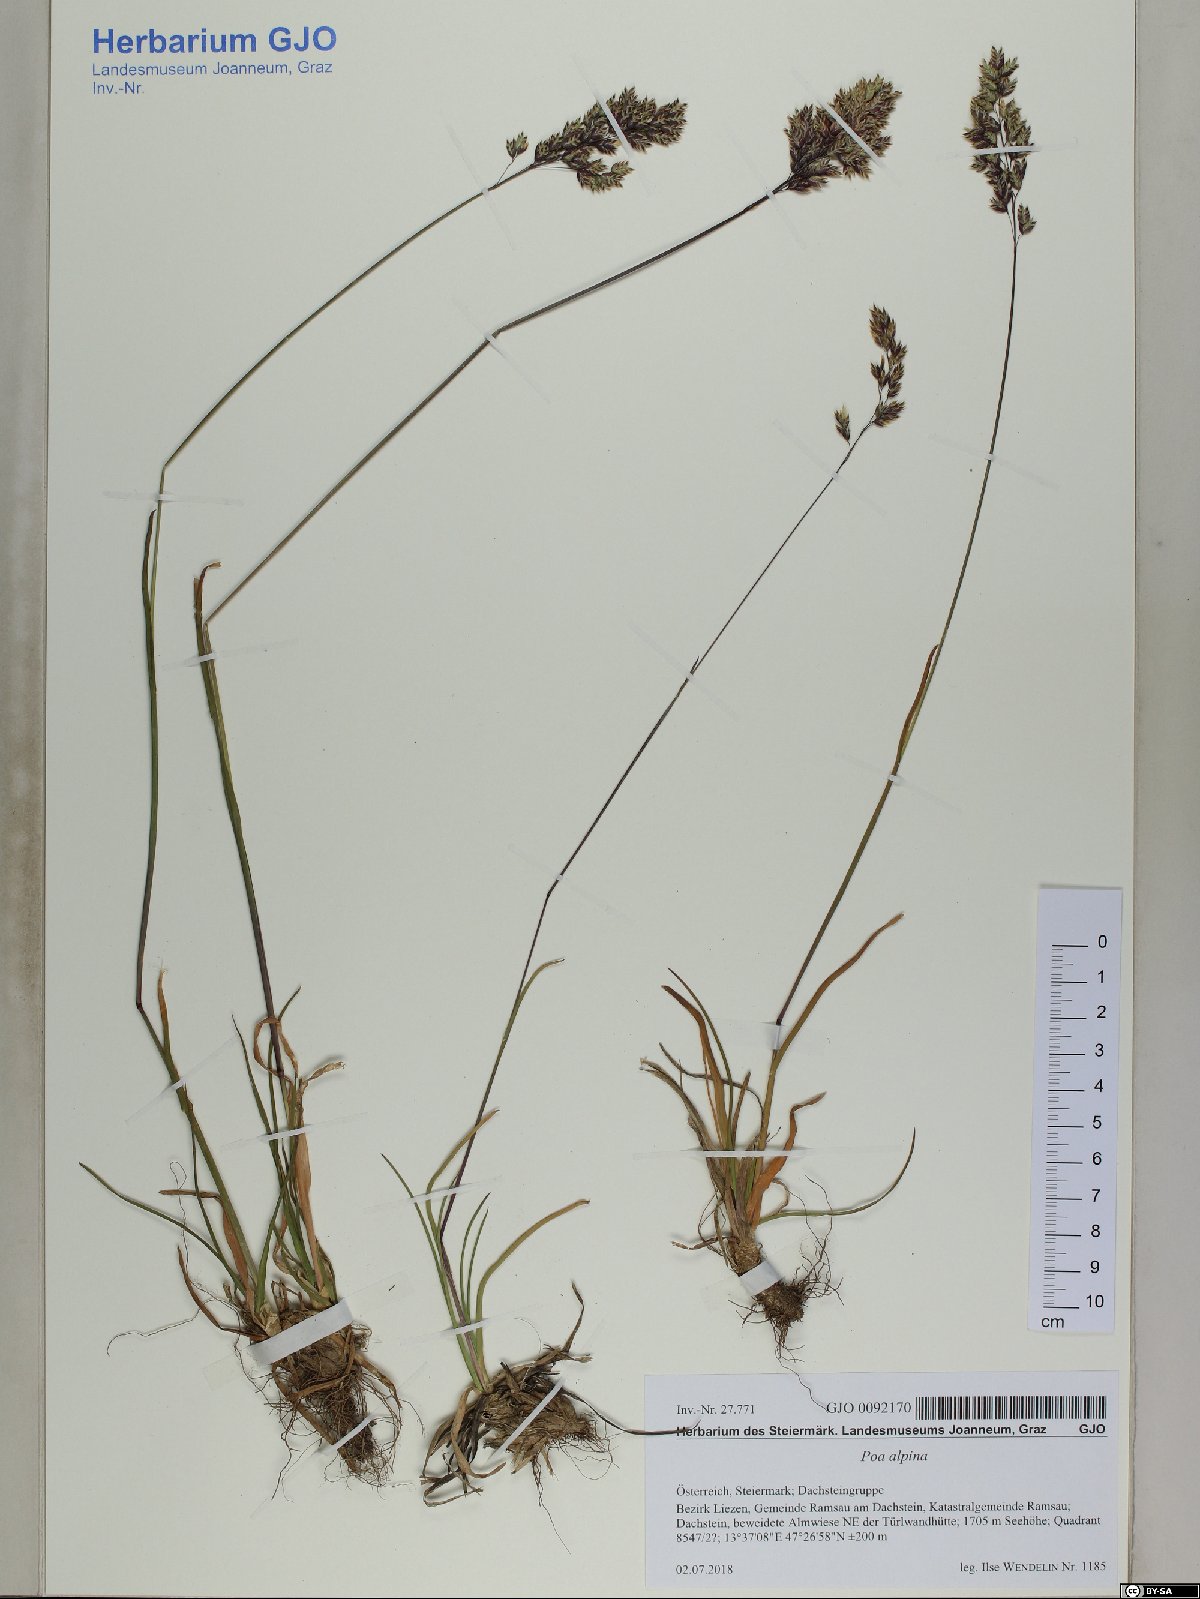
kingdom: Plantae
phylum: Tracheophyta
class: Liliopsida
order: Poales
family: Poaceae
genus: Poa
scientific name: Poa alpina
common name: Alpine bluegrass
